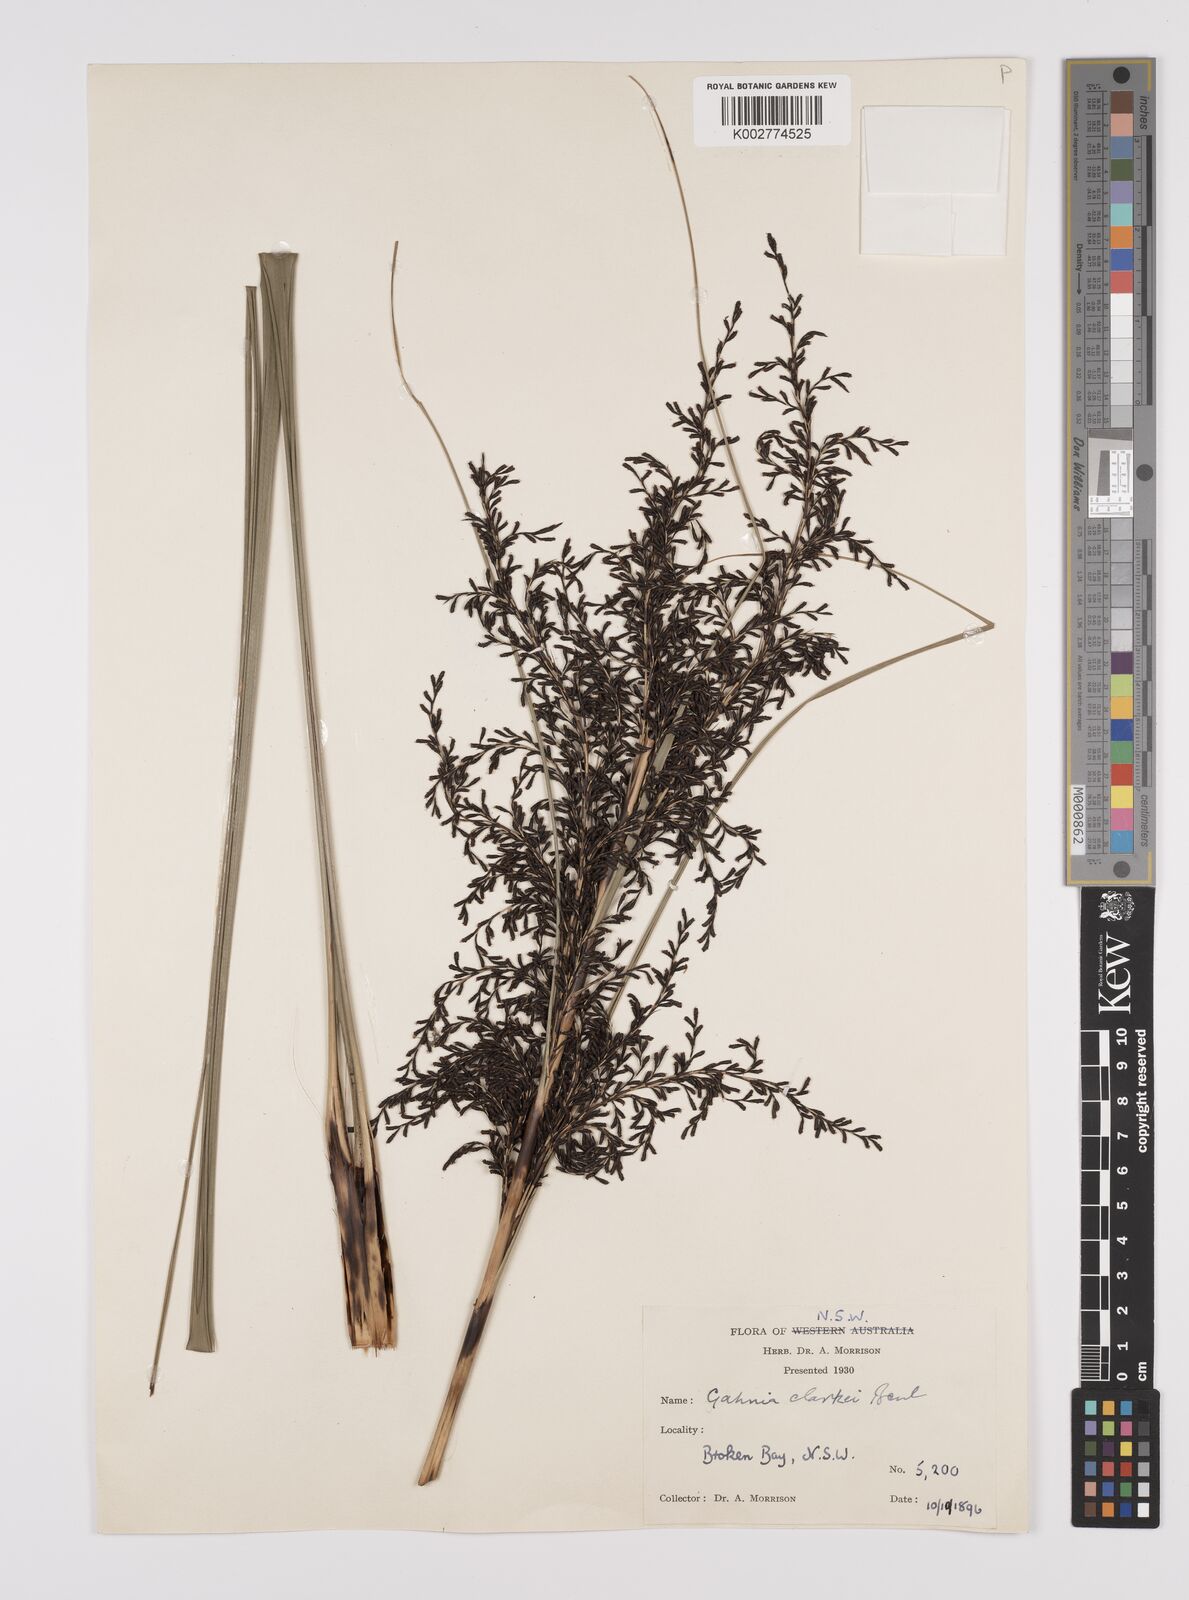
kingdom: Plantae
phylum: Tracheophyta
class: Liliopsida
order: Poales
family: Cyperaceae
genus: Gahnia
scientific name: Gahnia clarkei
